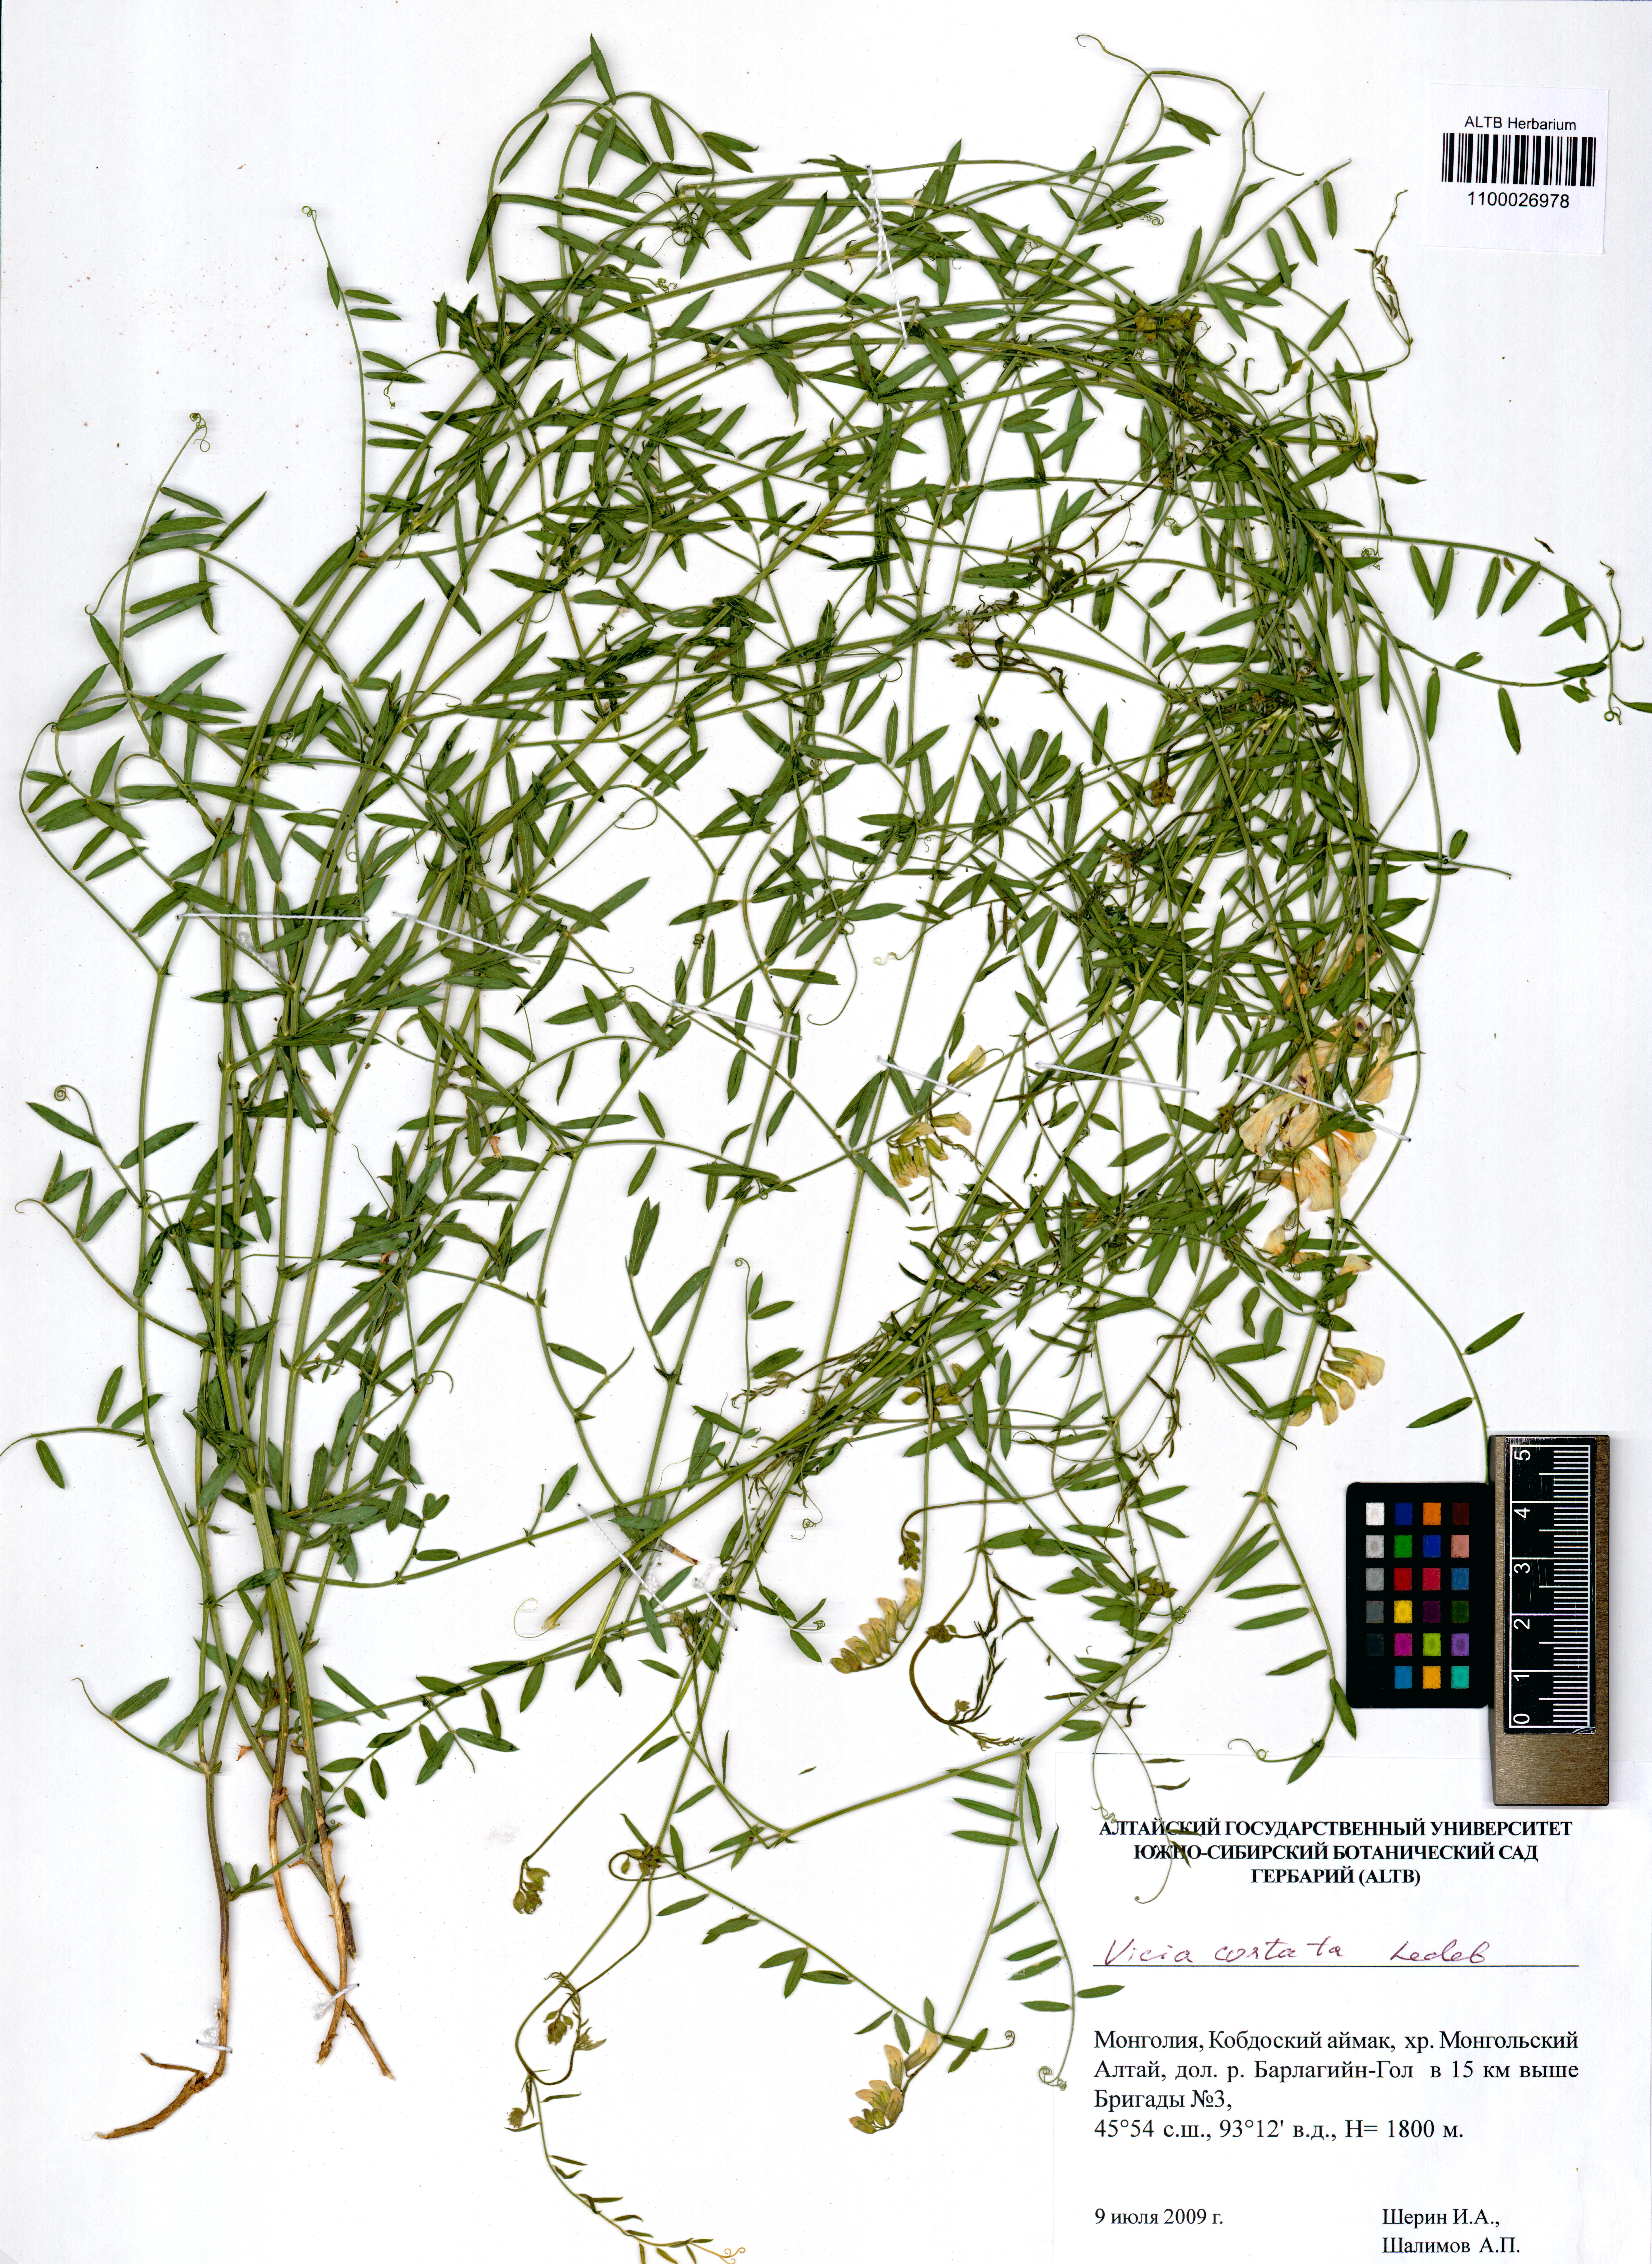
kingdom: Plantae
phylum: Tracheophyta
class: Magnoliopsida
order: Fabales
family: Fabaceae
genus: Vicia
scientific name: Vicia costata
